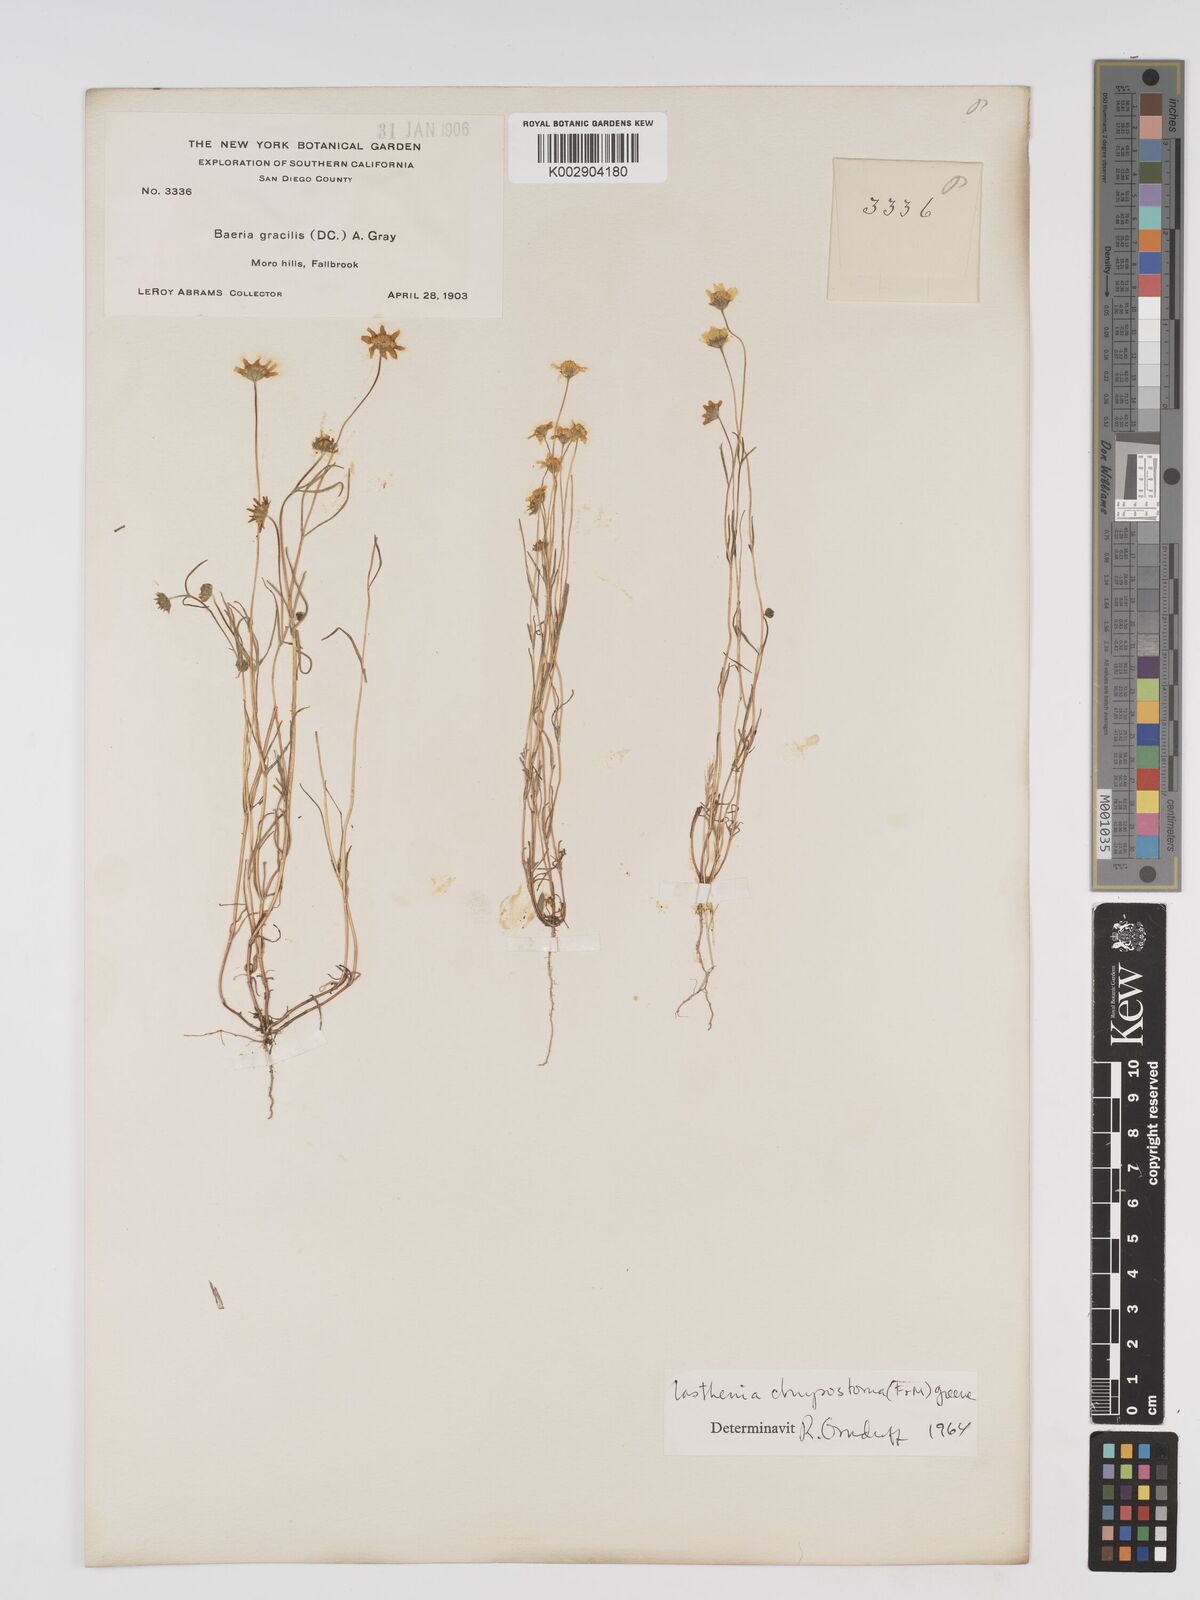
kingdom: Plantae
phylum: Tracheophyta
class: Magnoliopsida
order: Asterales
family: Asteraceae
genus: Lasthenia
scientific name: Lasthenia californica
